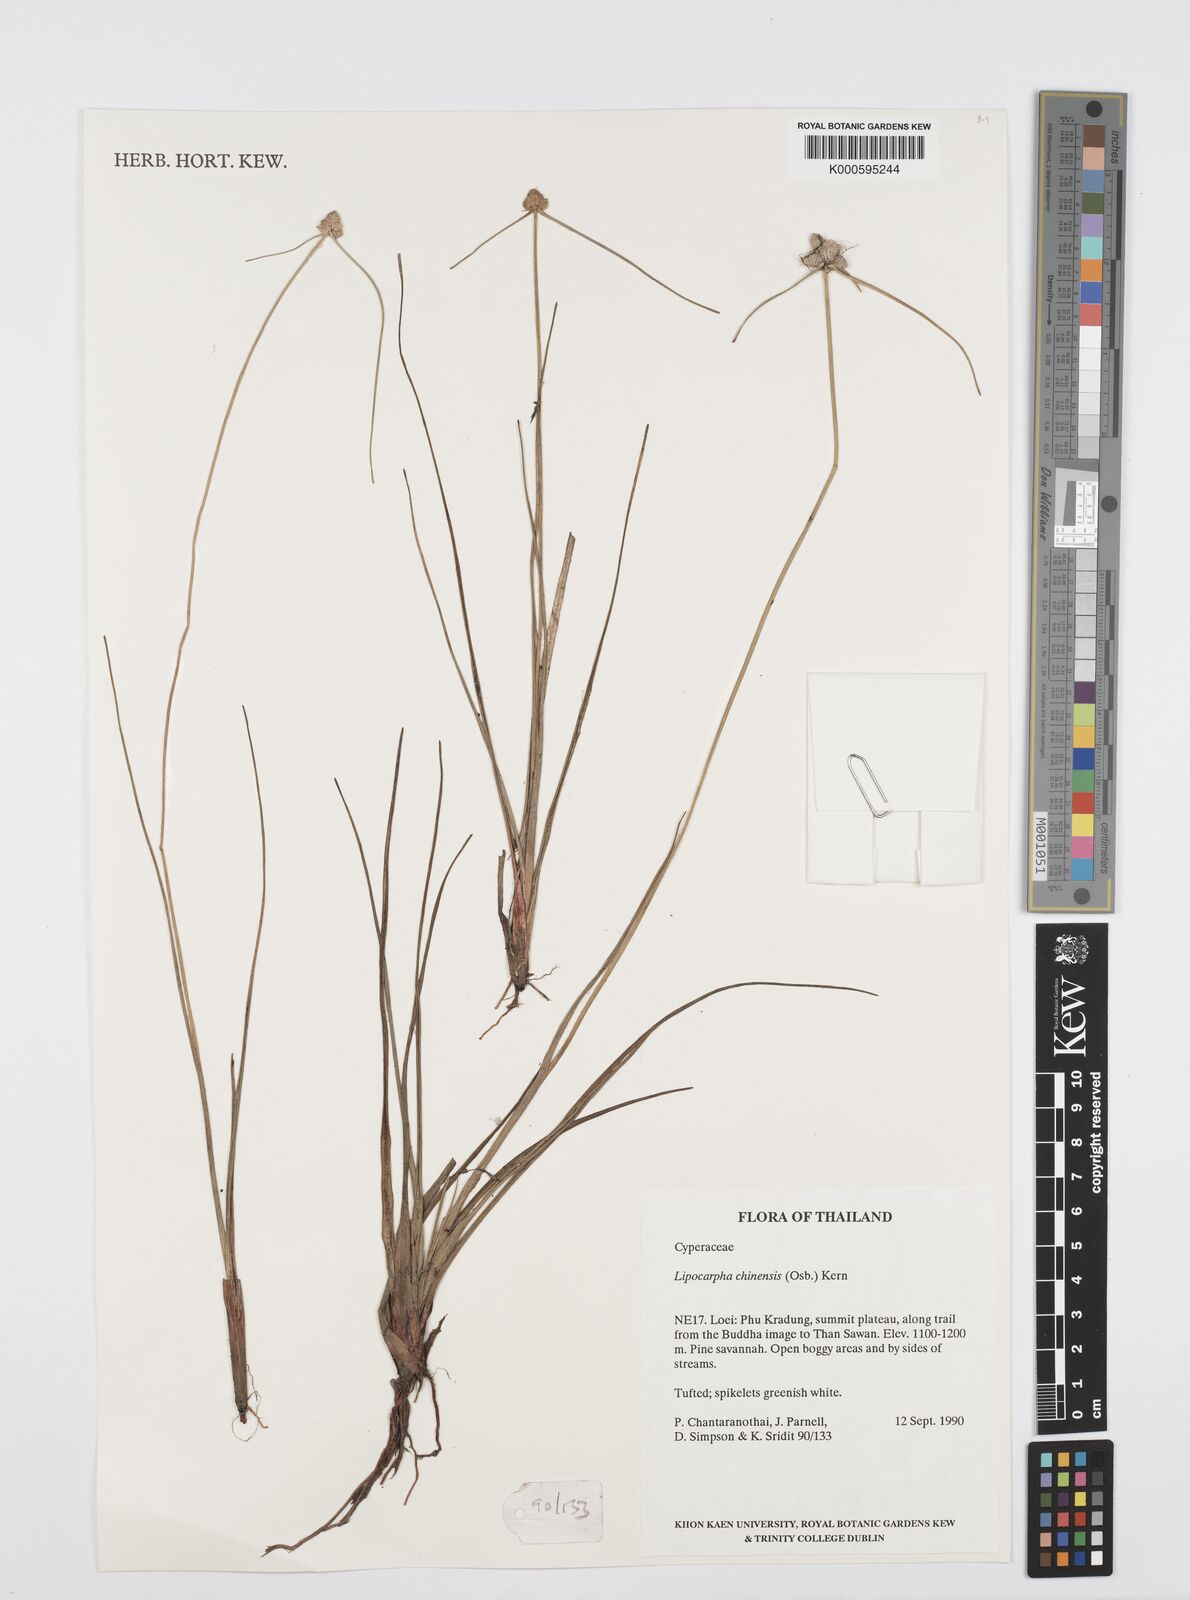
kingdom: Plantae
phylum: Tracheophyta
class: Liliopsida
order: Poales
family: Cyperaceae
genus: Cyperus
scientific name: Cyperus albescens
